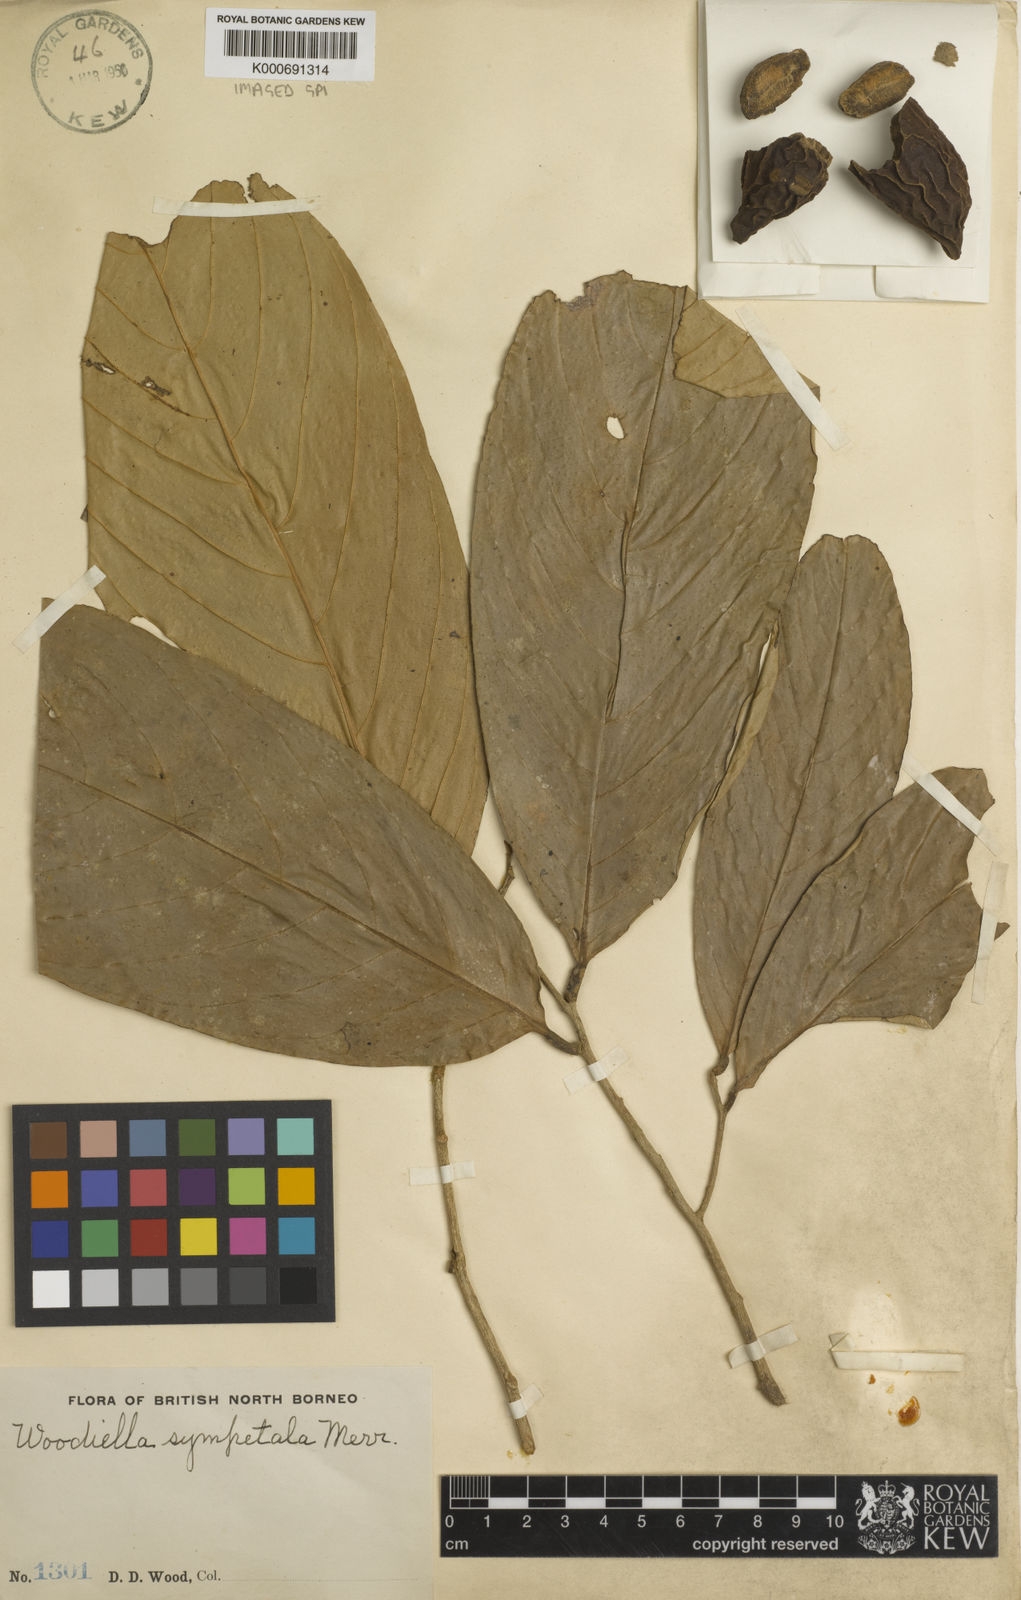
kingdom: Plantae
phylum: Tracheophyta
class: Magnoliopsida
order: Magnoliales
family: Annonaceae
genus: Woodiellantha
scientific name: Woodiellantha sympetala
